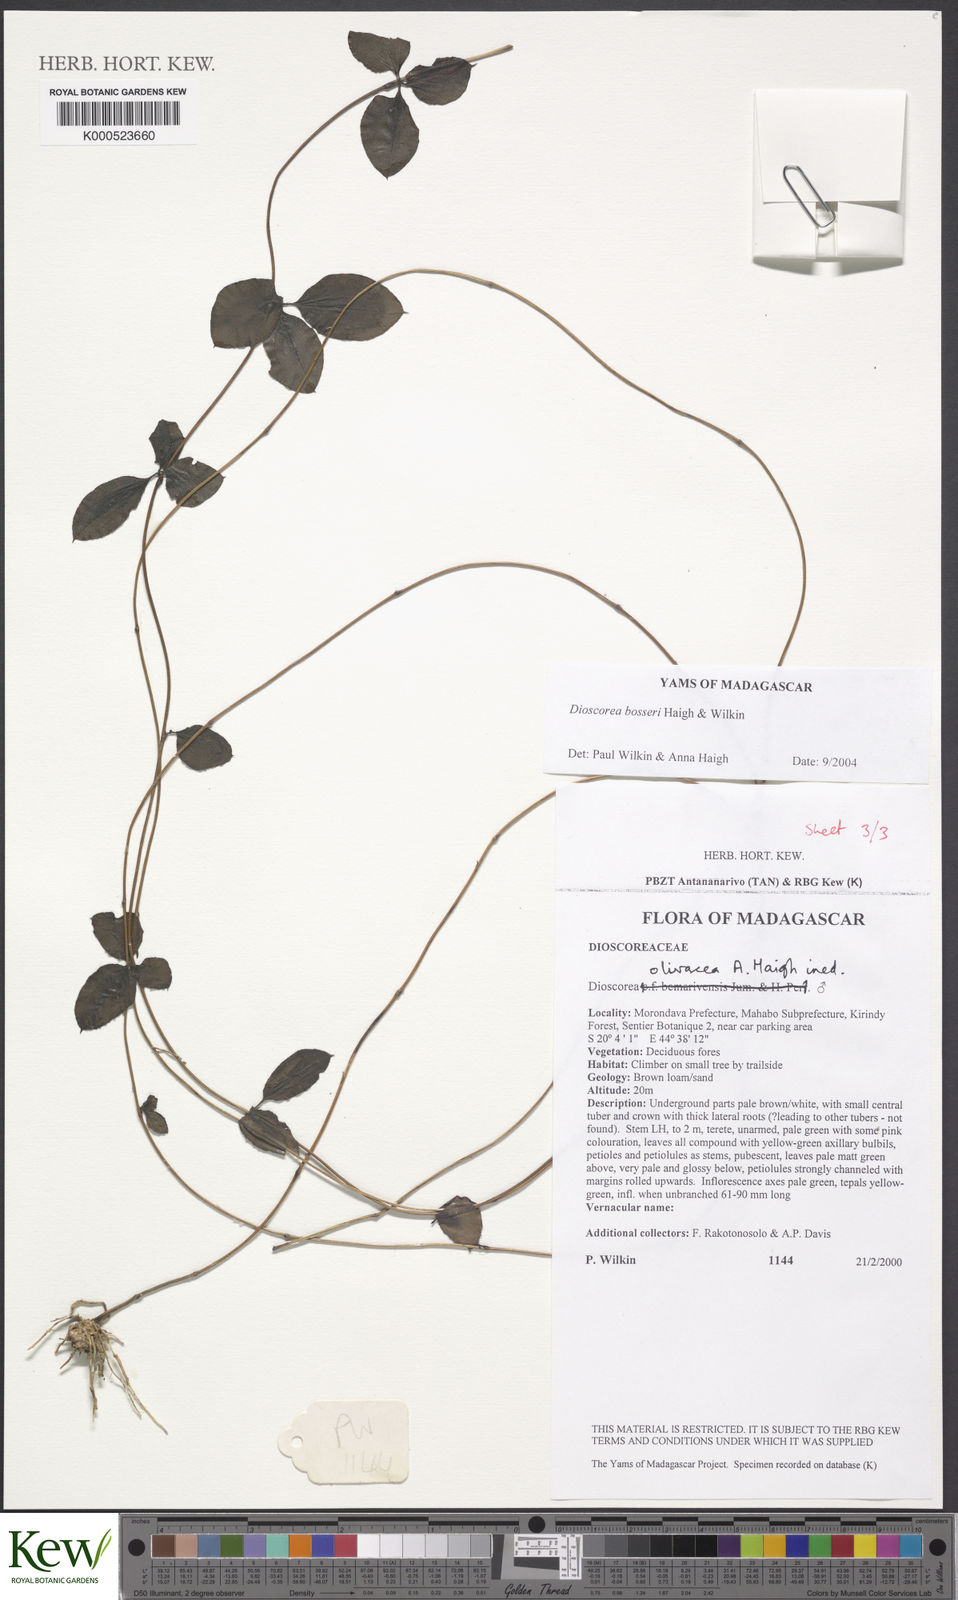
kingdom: Plantae
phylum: Tracheophyta
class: Liliopsida
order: Dioscoreales
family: Dioscoreaceae
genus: Dioscorea
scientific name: Dioscorea bosseri
